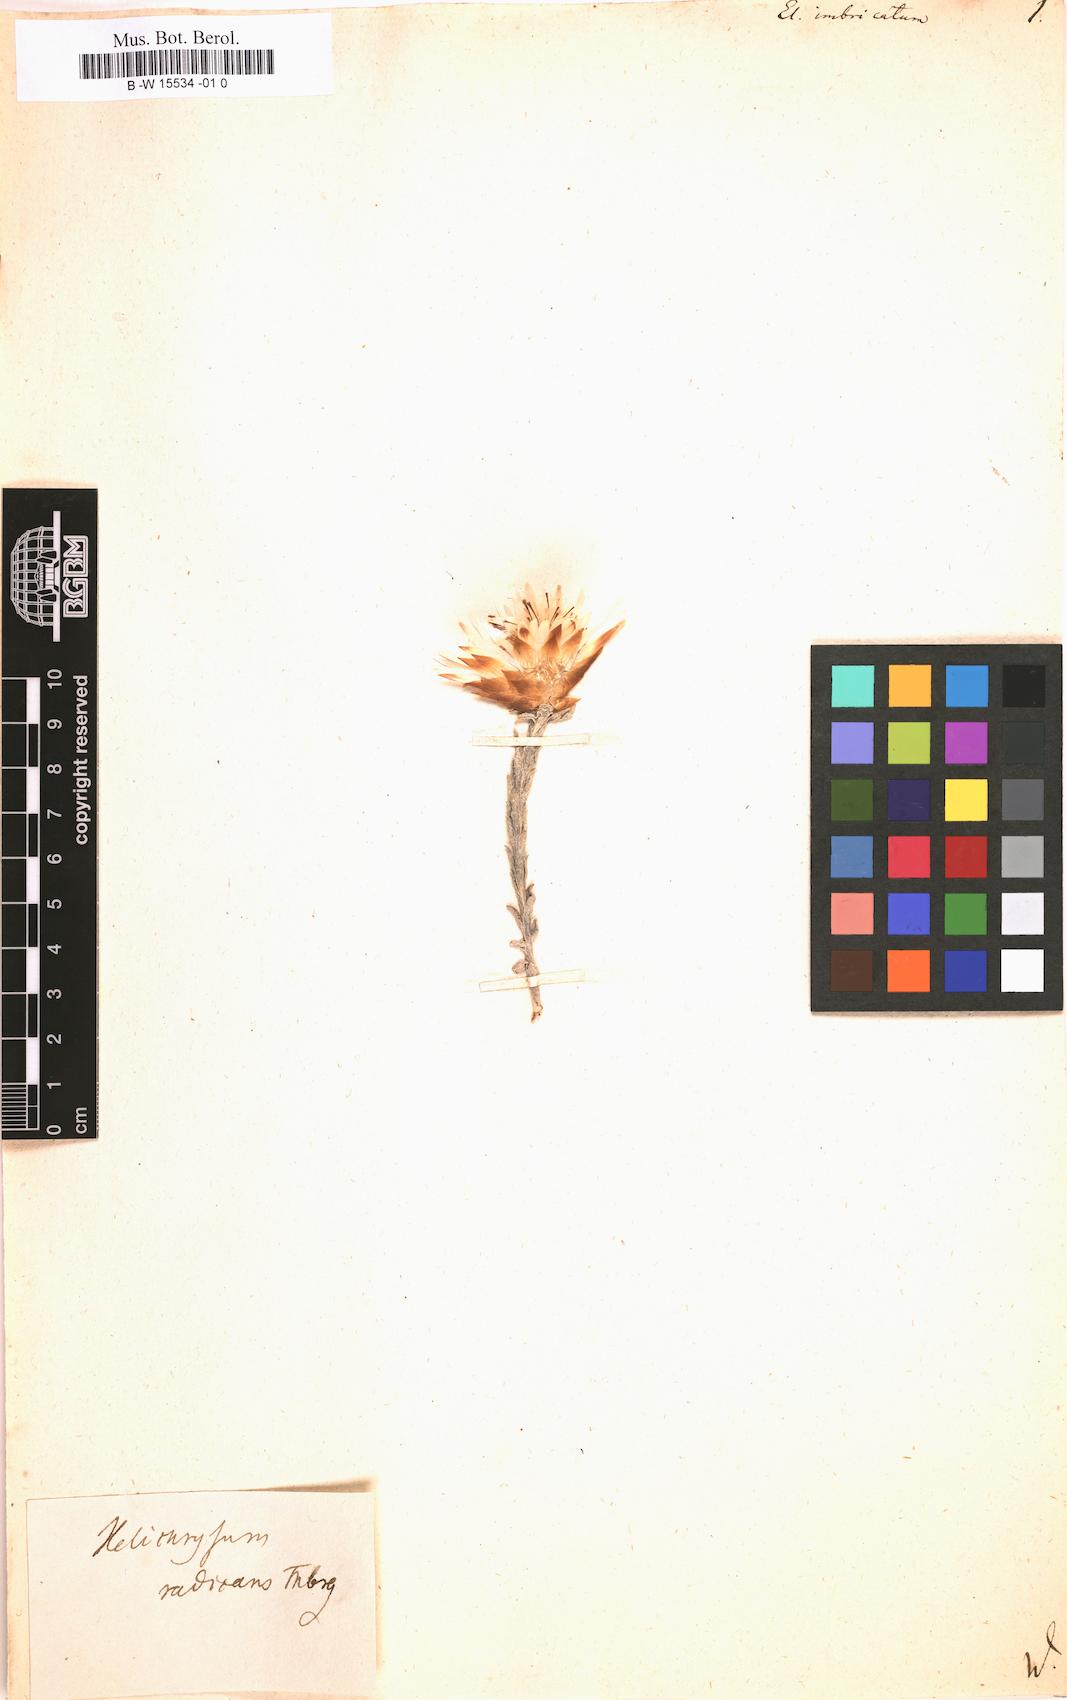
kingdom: Plantae
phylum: Tracheophyta
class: Magnoliopsida
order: Asterales
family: Asteraceae
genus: Helichrysum
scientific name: Helichrysum
